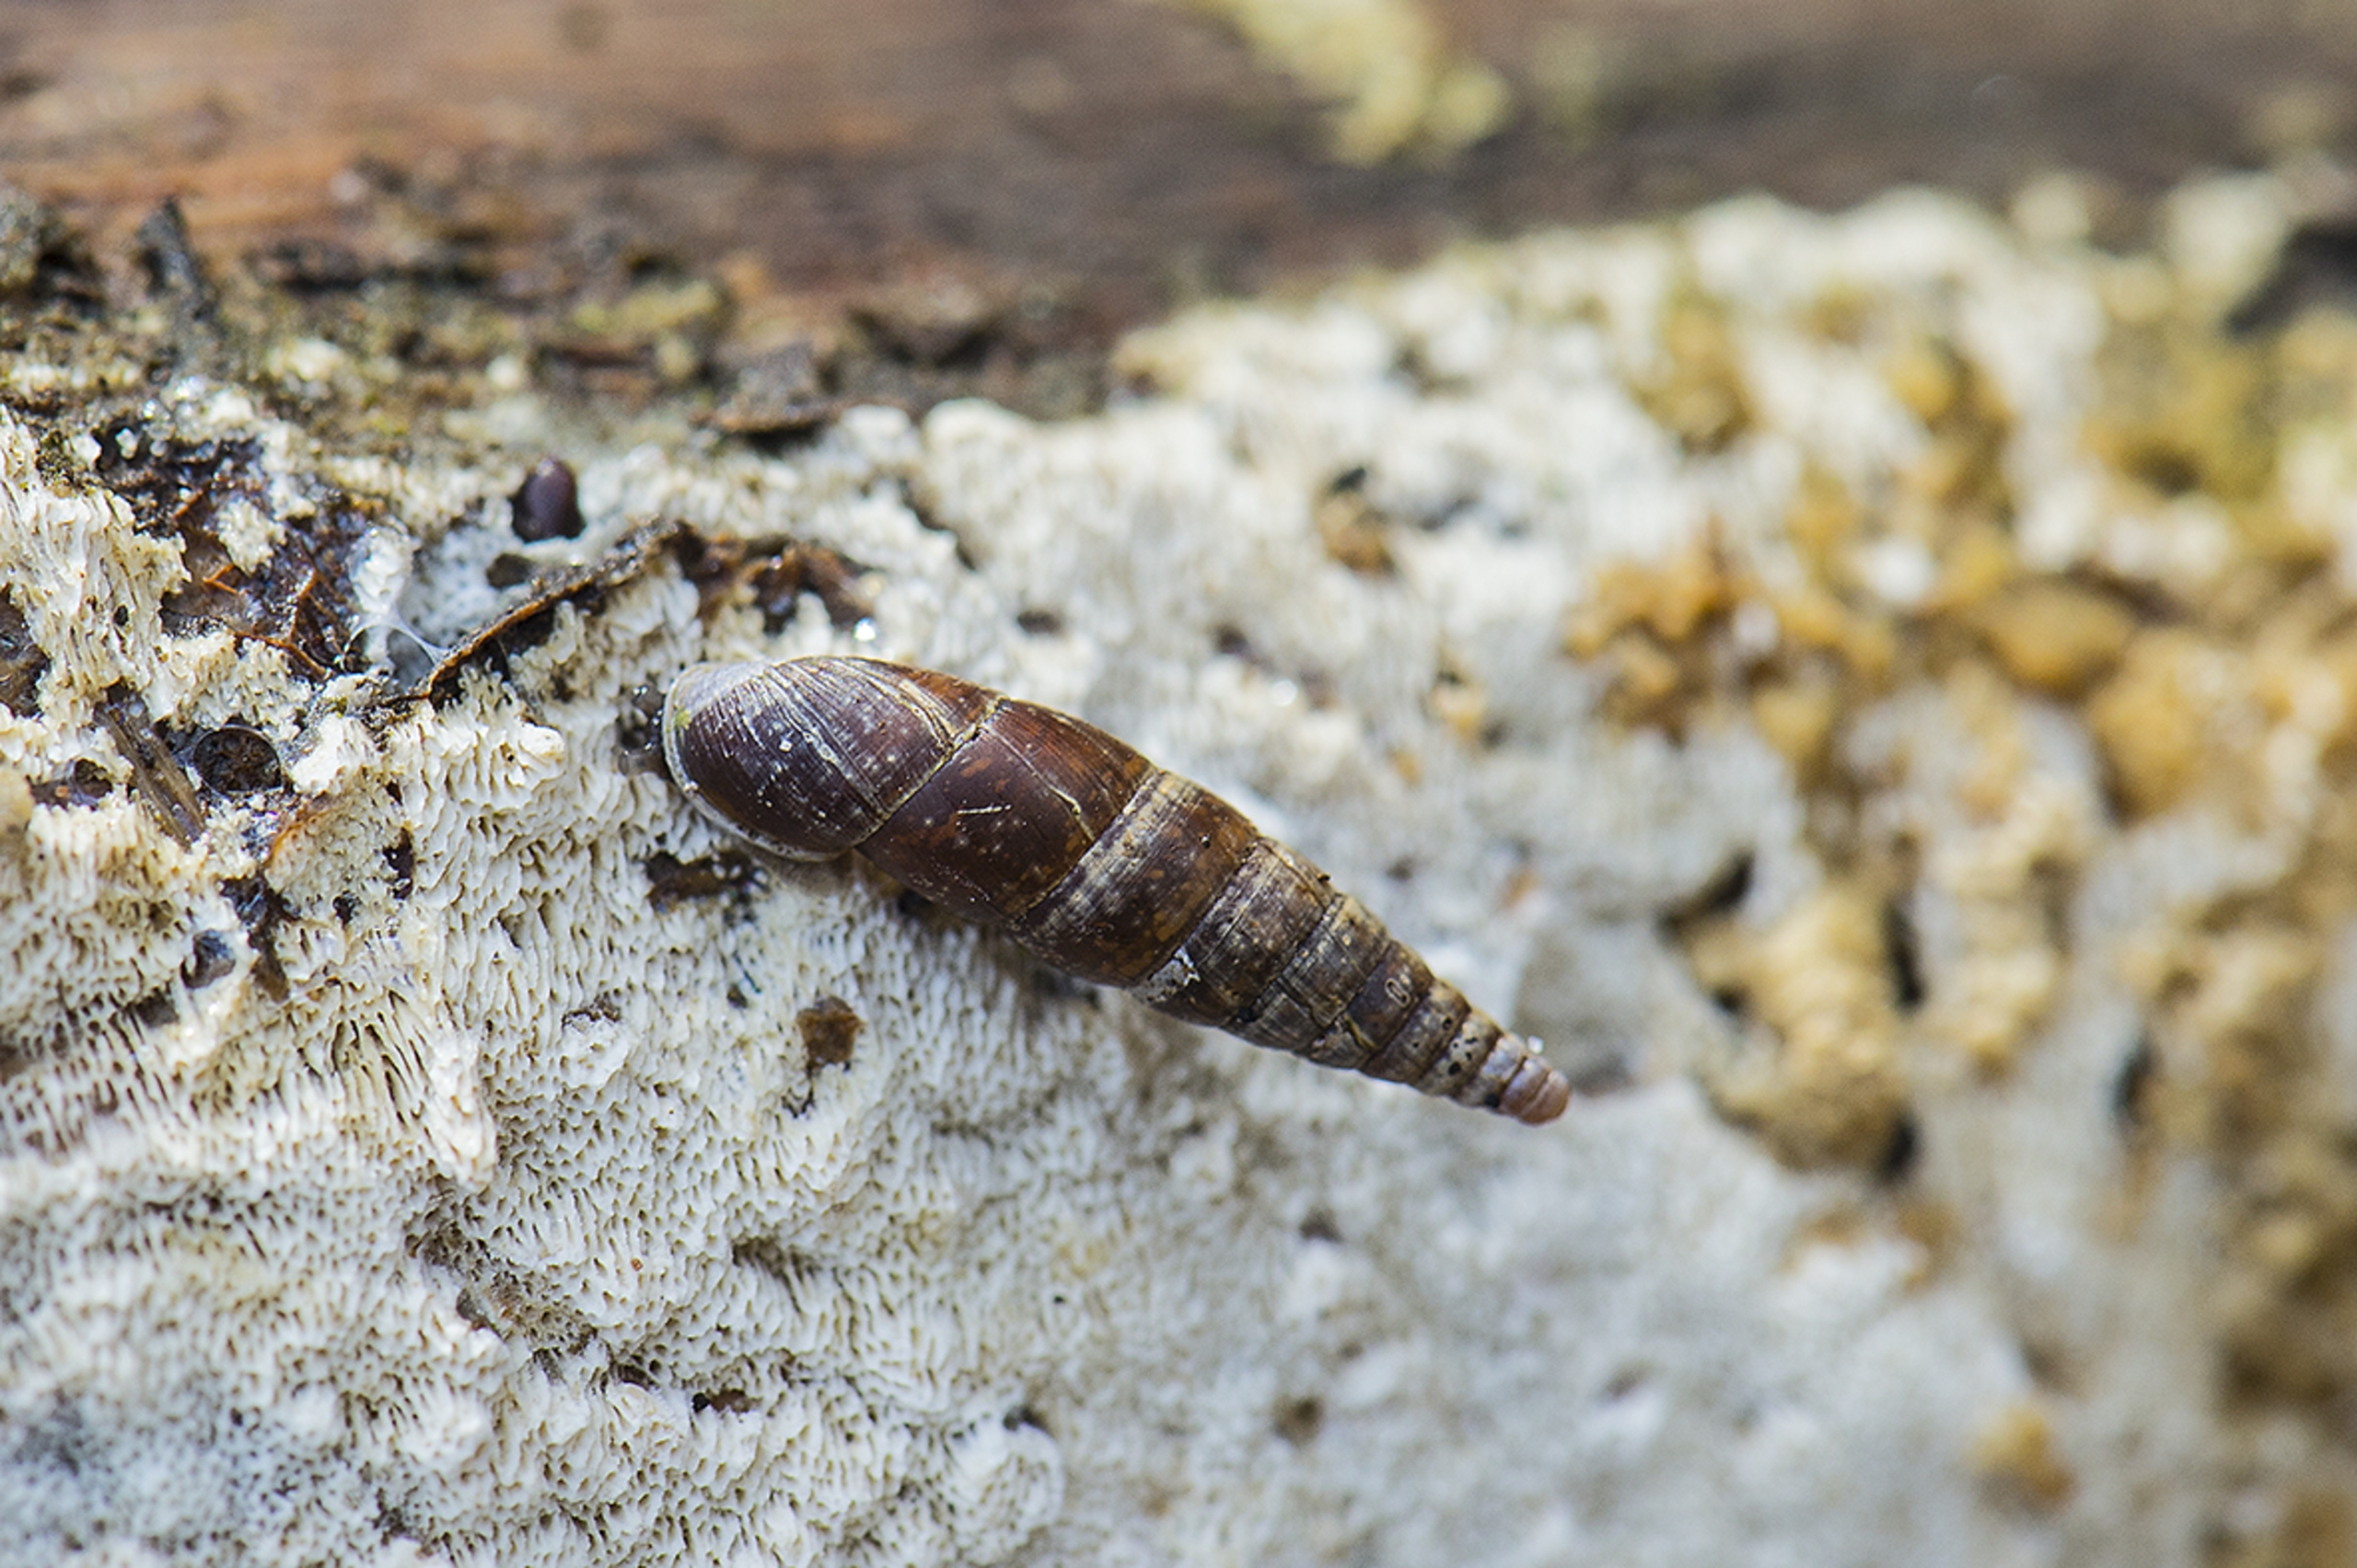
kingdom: Animalia
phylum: Mollusca
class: Gastropoda
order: Stylommatophora
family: Clausiliidae
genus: Cochlodina
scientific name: Cochlodina laminata
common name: Glat foldsnegl
